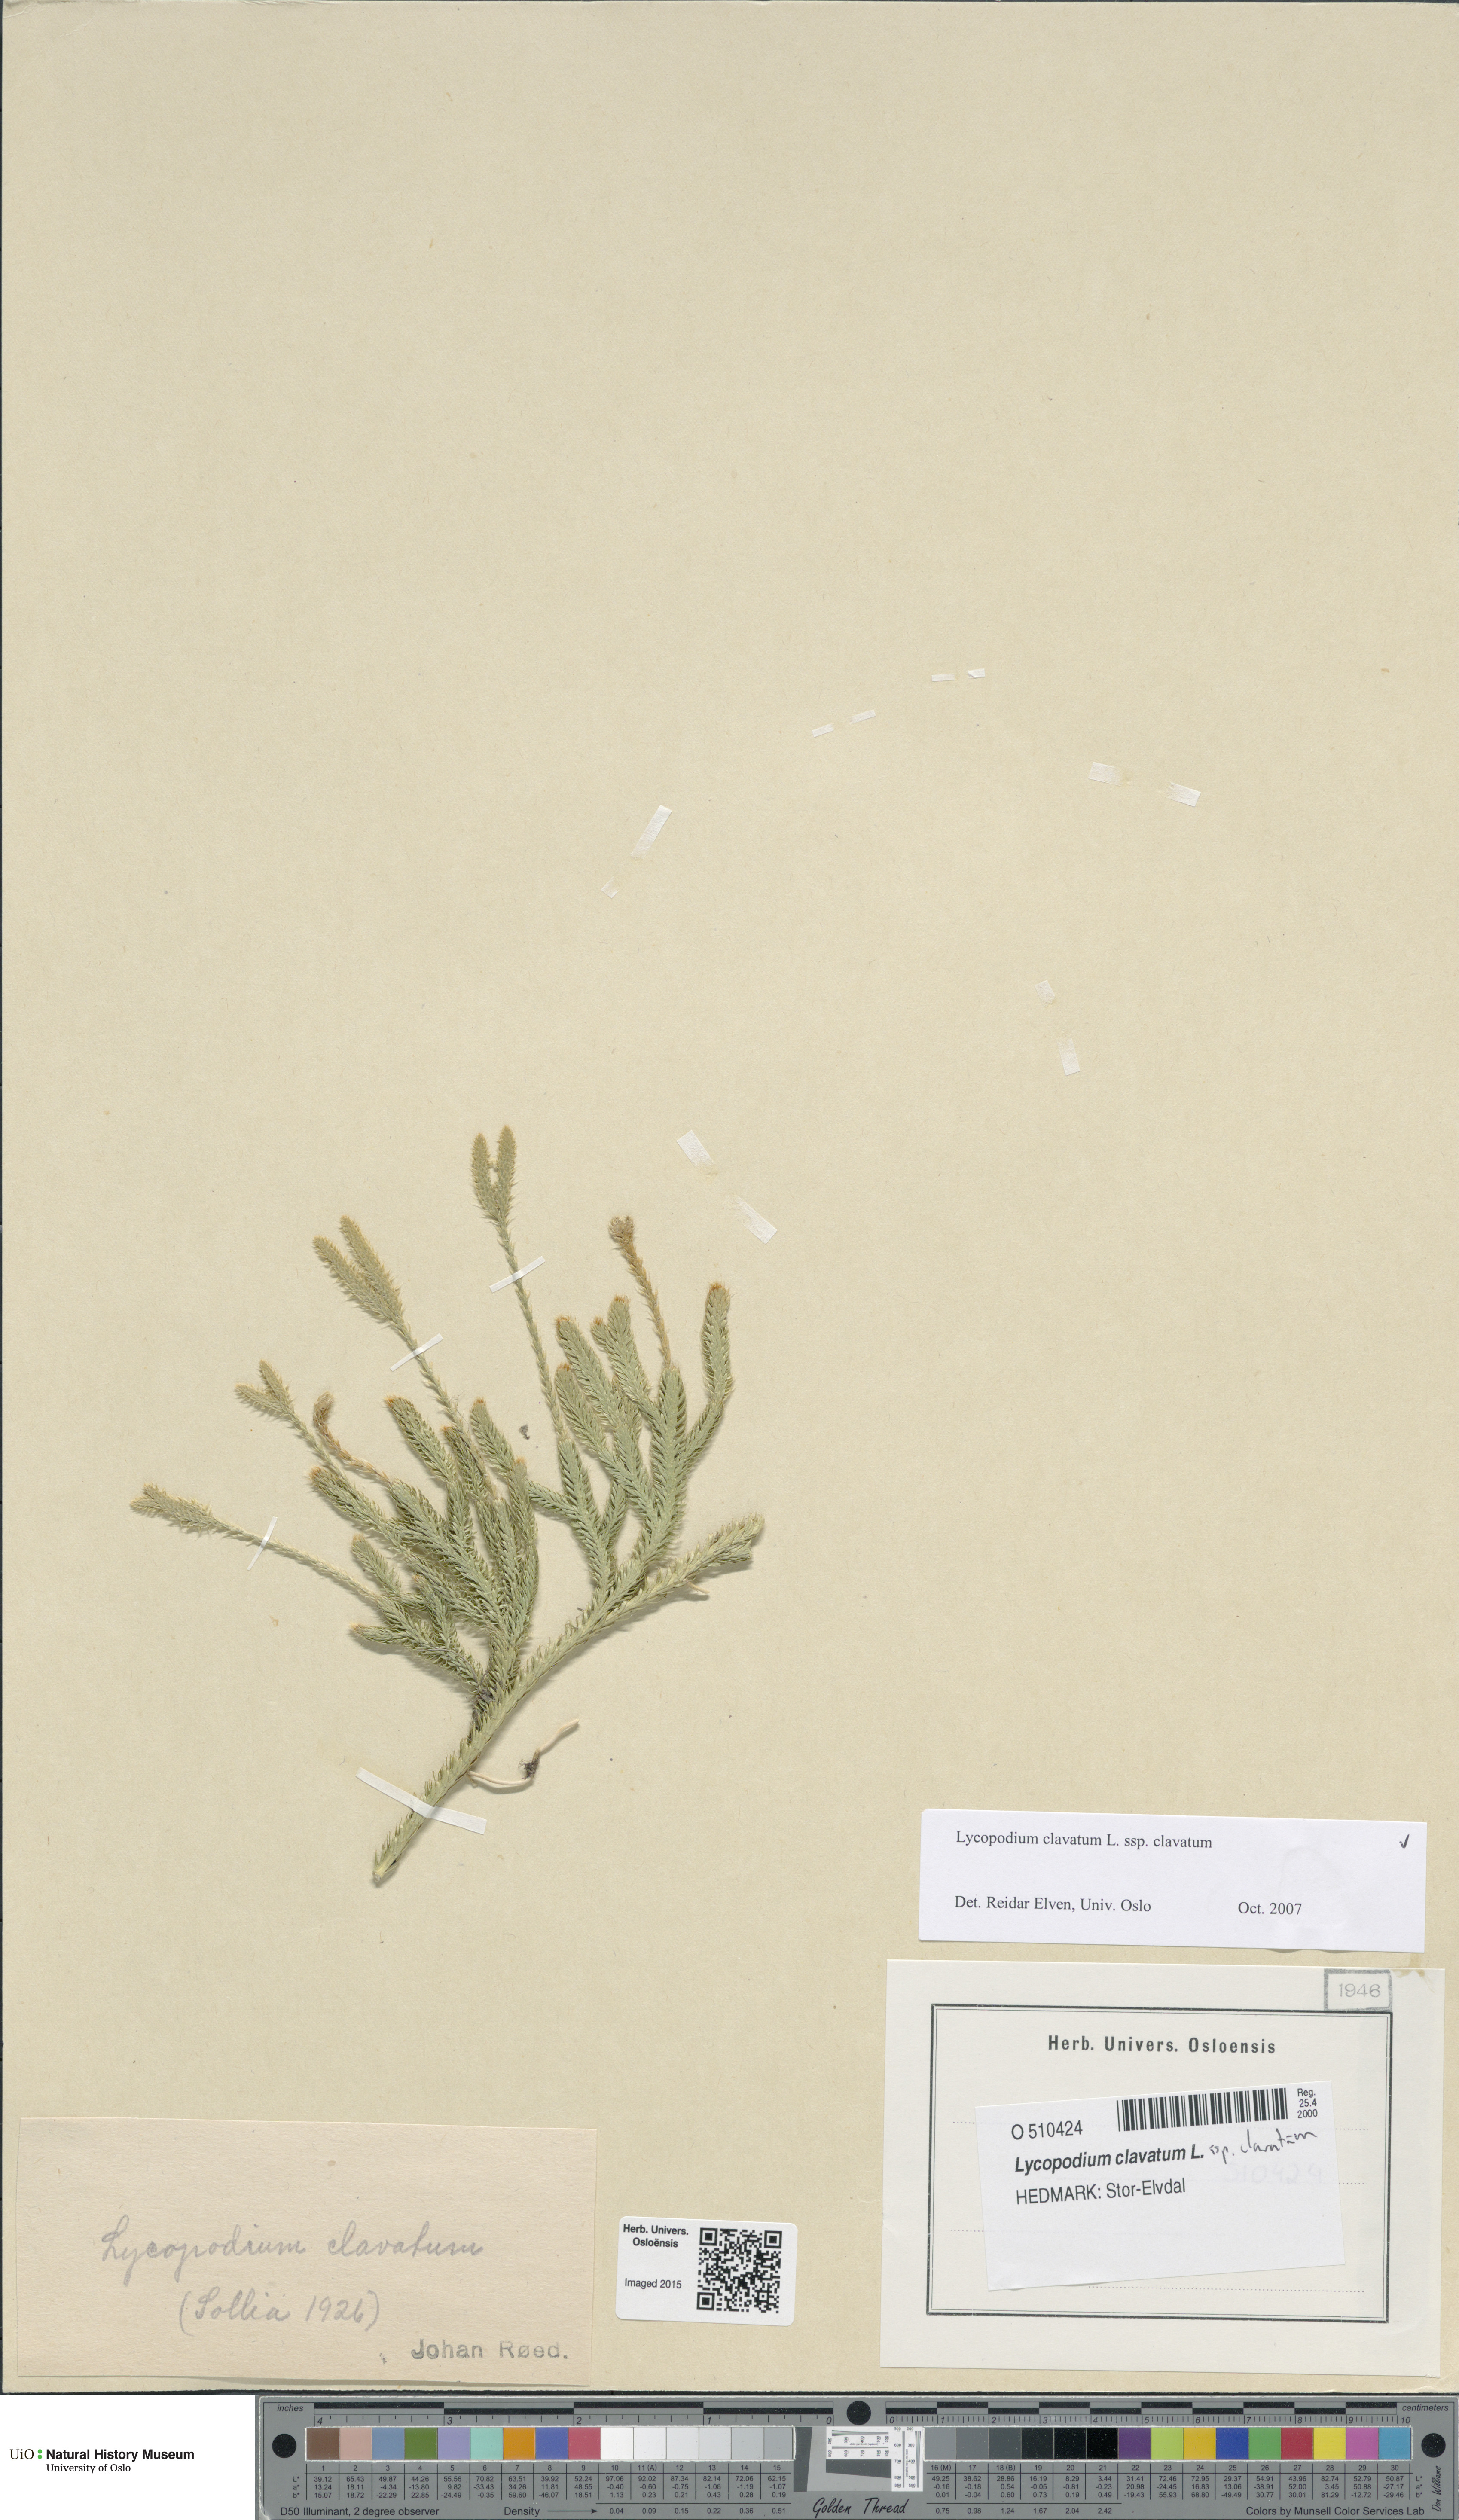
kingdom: Plantae
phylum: Tracheophyta
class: Lycopodiopsida
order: Lycopodiales
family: Lycopodiaceae
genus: Lycopodium
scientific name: Lycopodium clavatum
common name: Stag's-horn clubmoss
